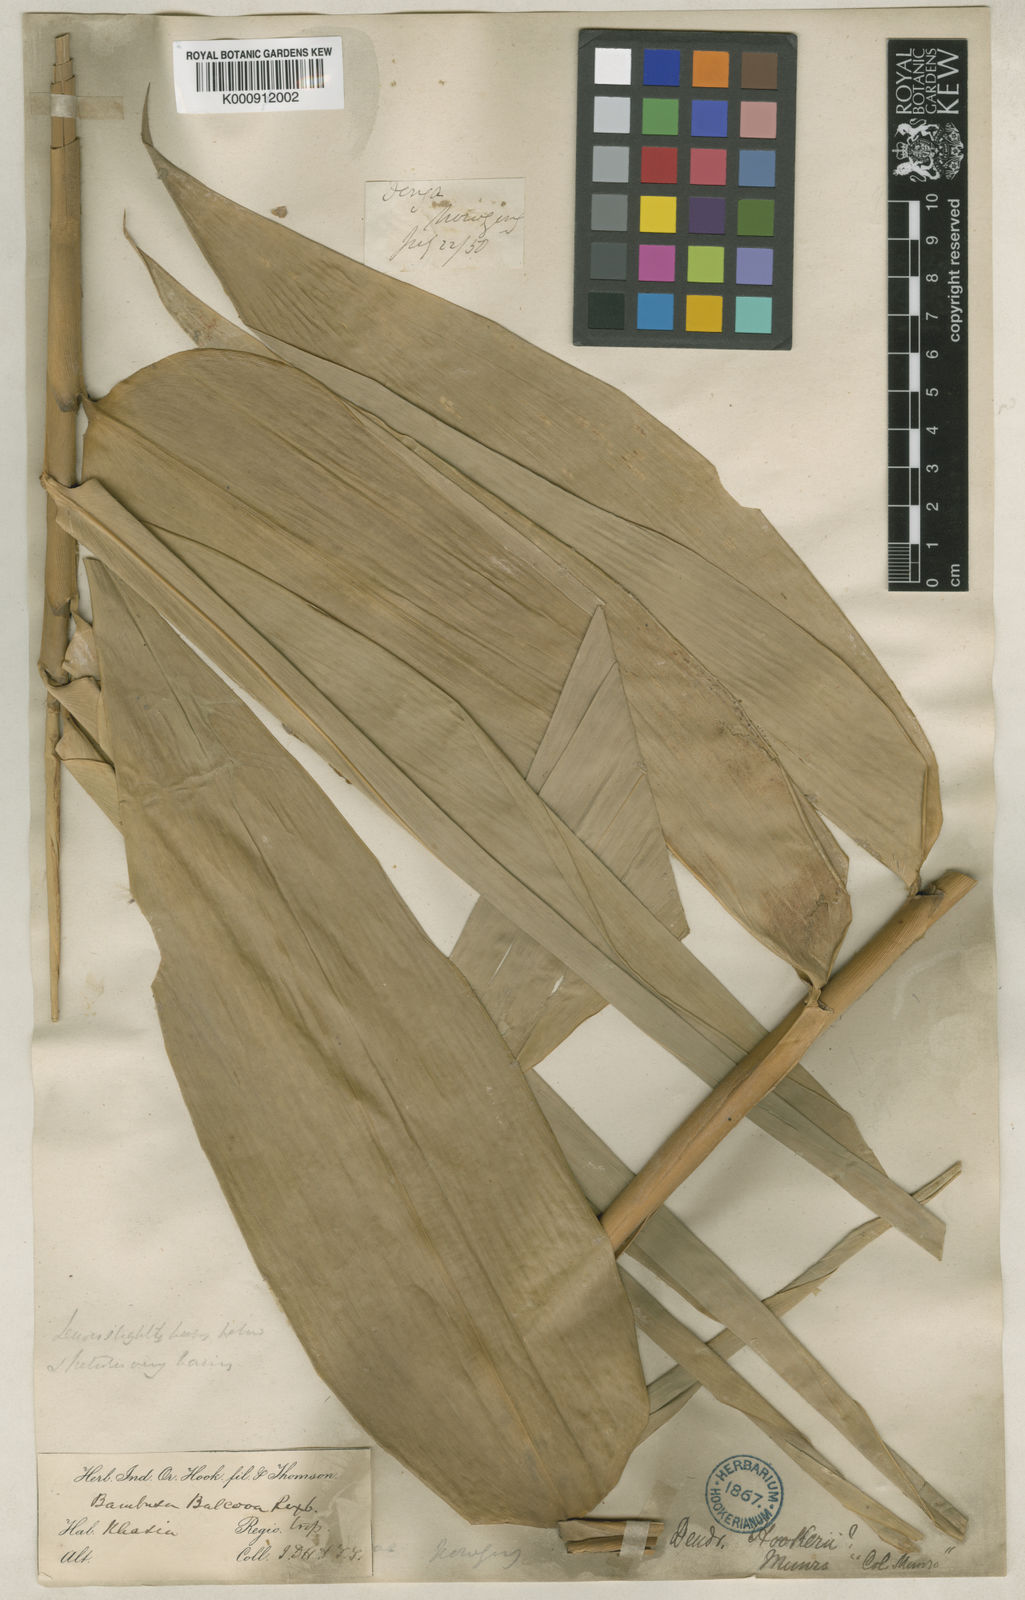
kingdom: Plantae
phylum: Tracheophyta
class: Liliopsida
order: Poales
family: Poaceae
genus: Dendrocalamus
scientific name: Dendrocalamus hookeri
